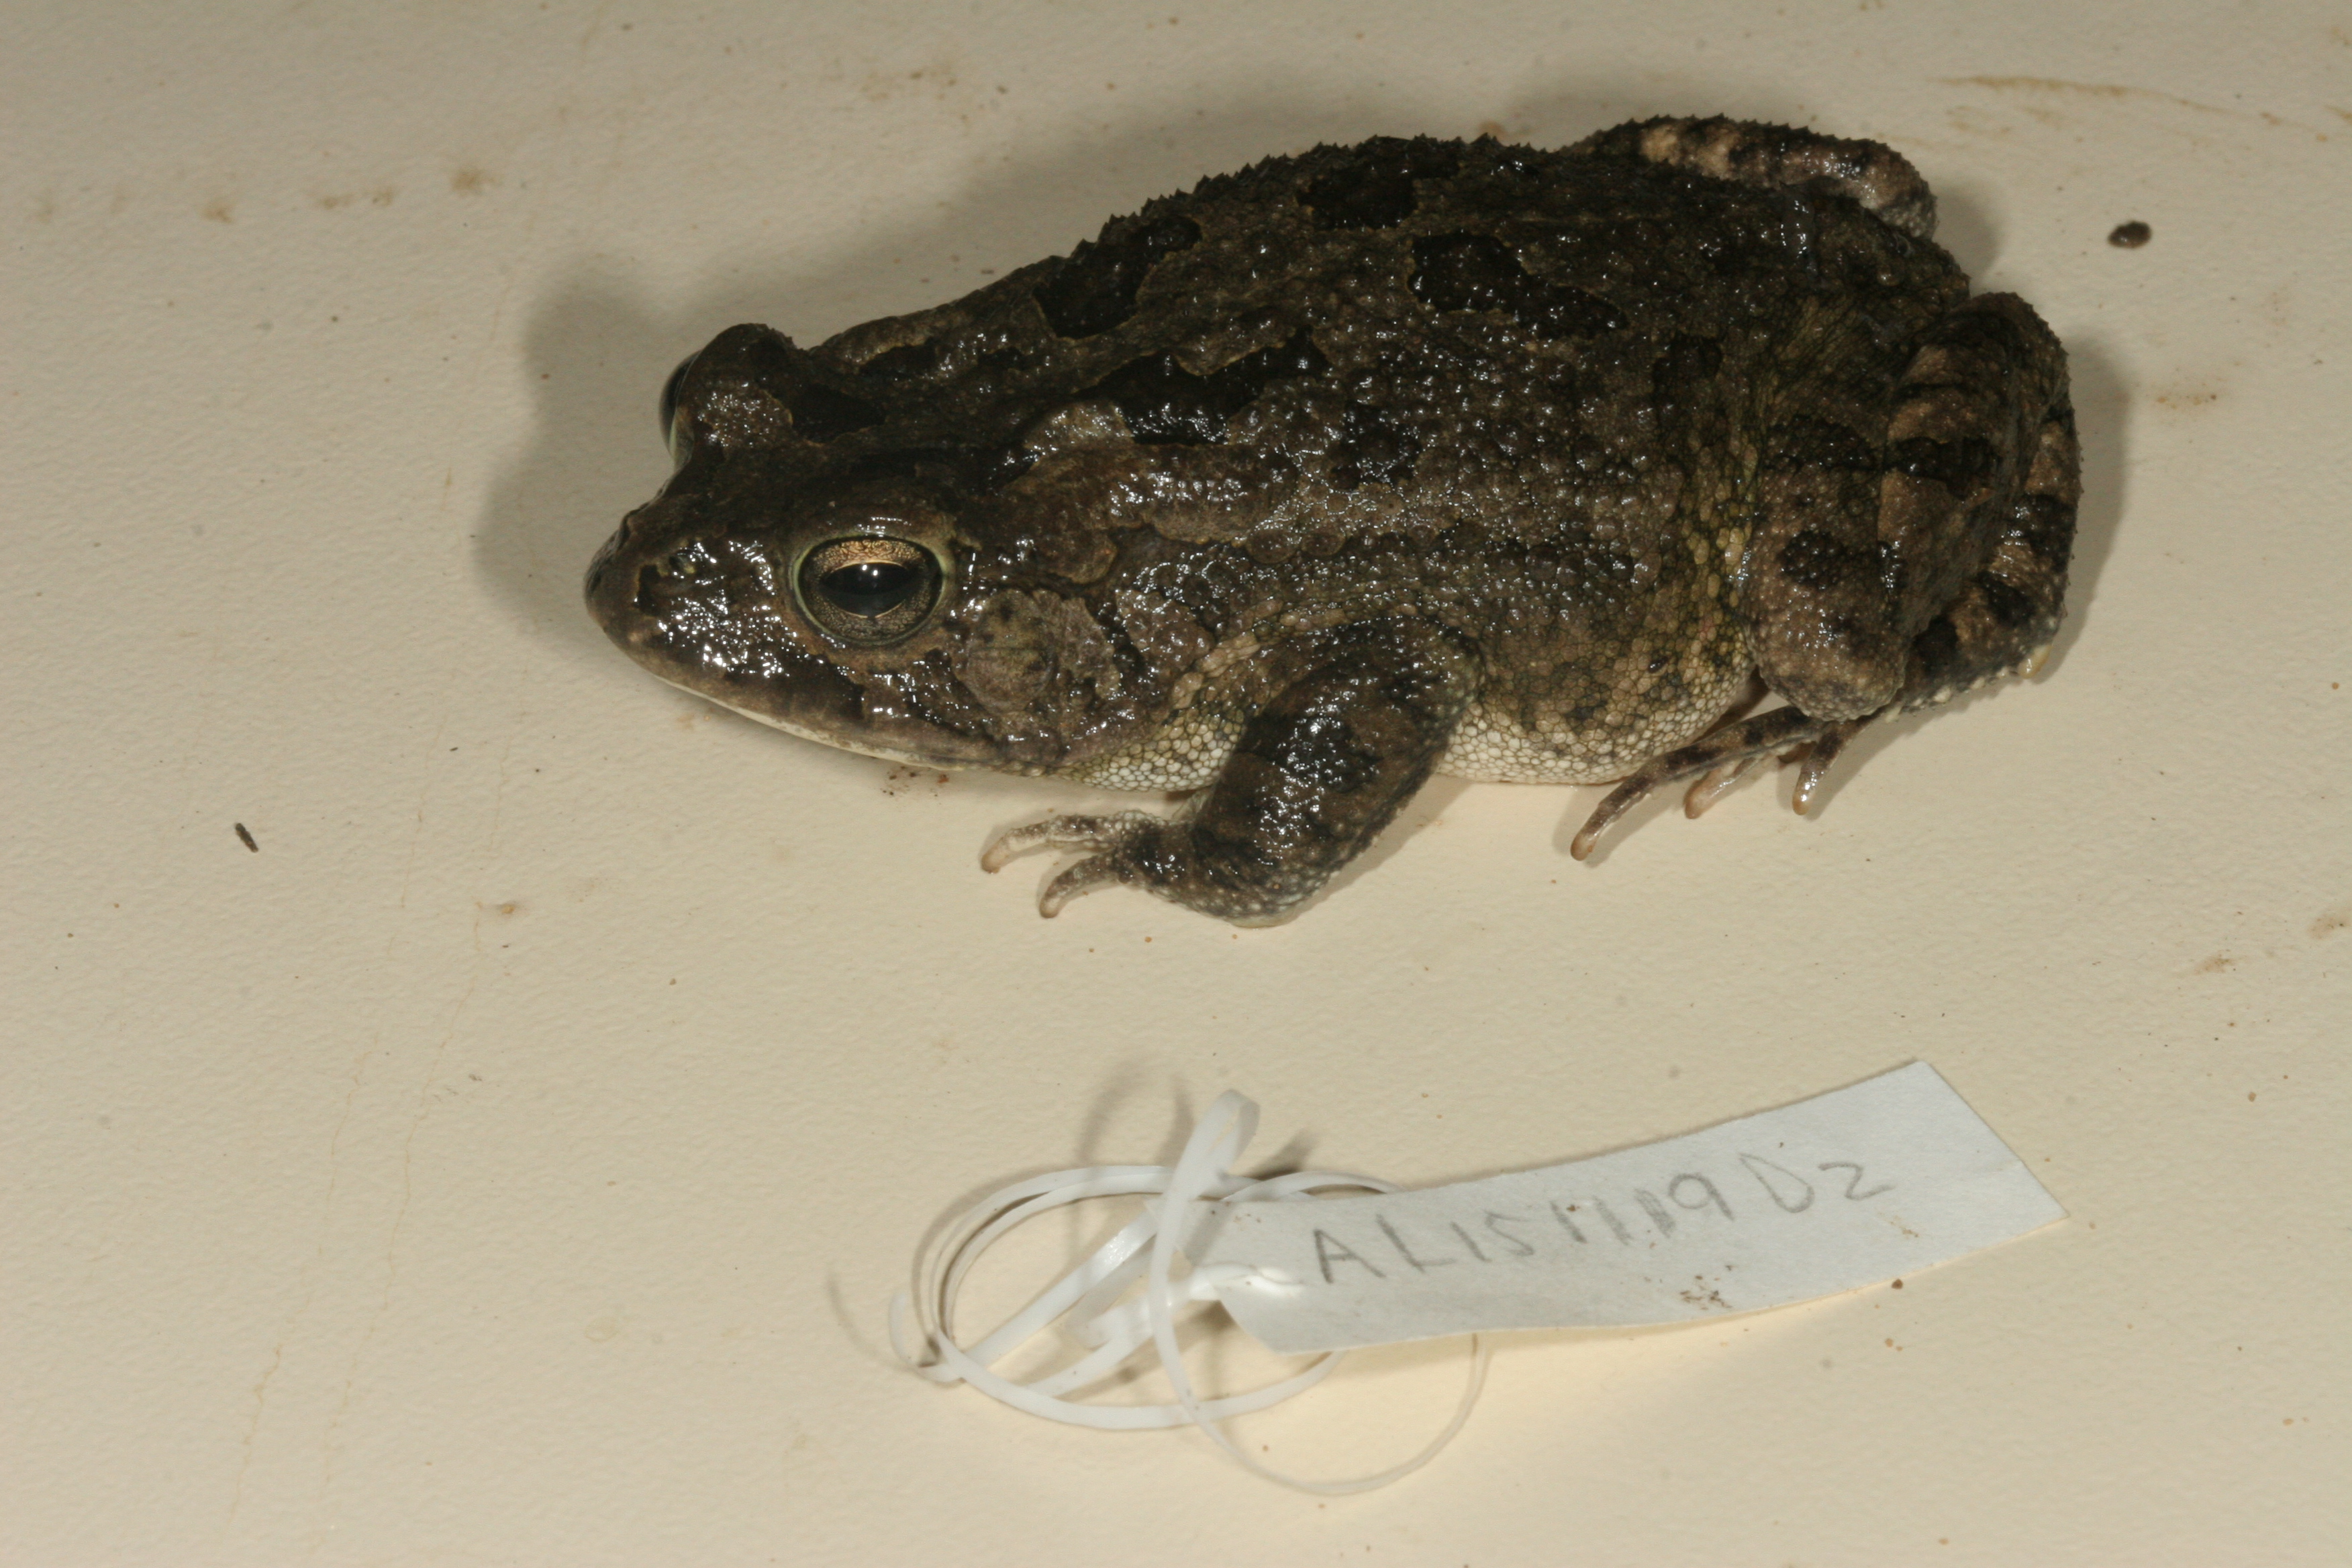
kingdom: Animalia
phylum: Chordata
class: Amphibia
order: Anura
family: Bufonidae
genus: Sclerophrys
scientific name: Sclerophrys gutturalis
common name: African common toad
